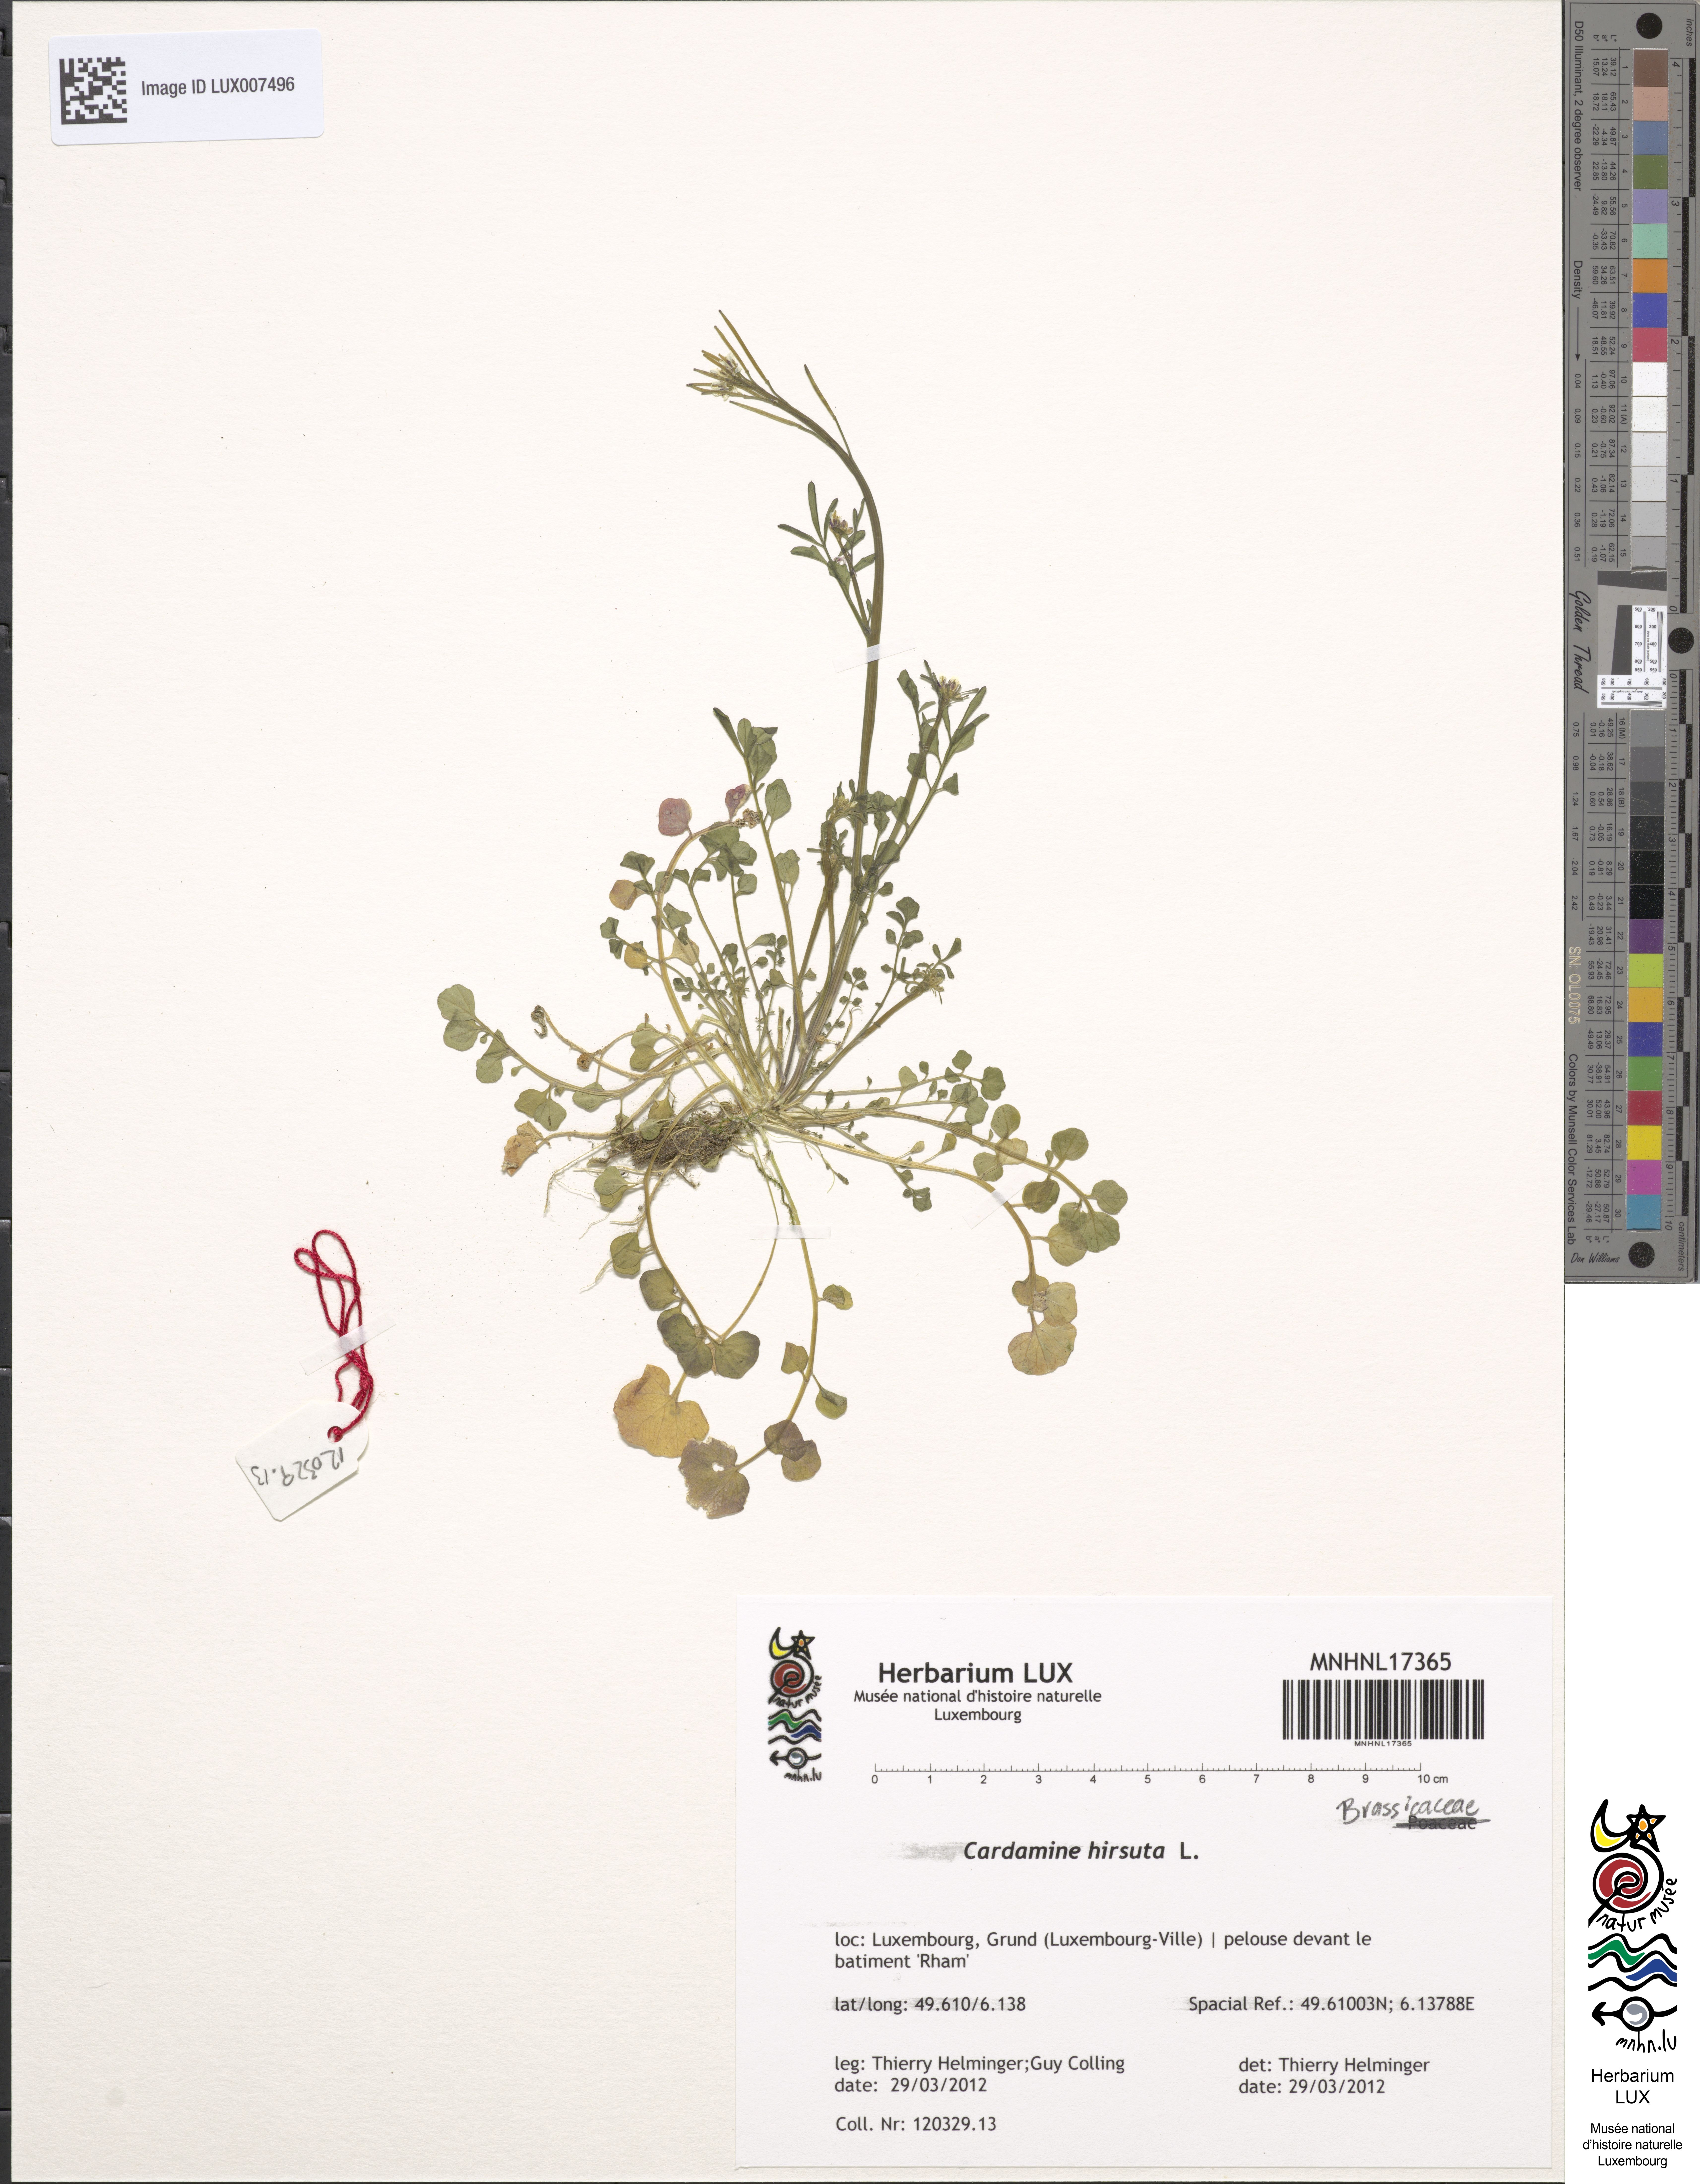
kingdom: Plantae
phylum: Tracheophyta
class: Magnoliopsida
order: Brassicales
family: Brassicaceae
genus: Cardamine
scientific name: Cardamine hirsuta
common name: Hairy bittercress
